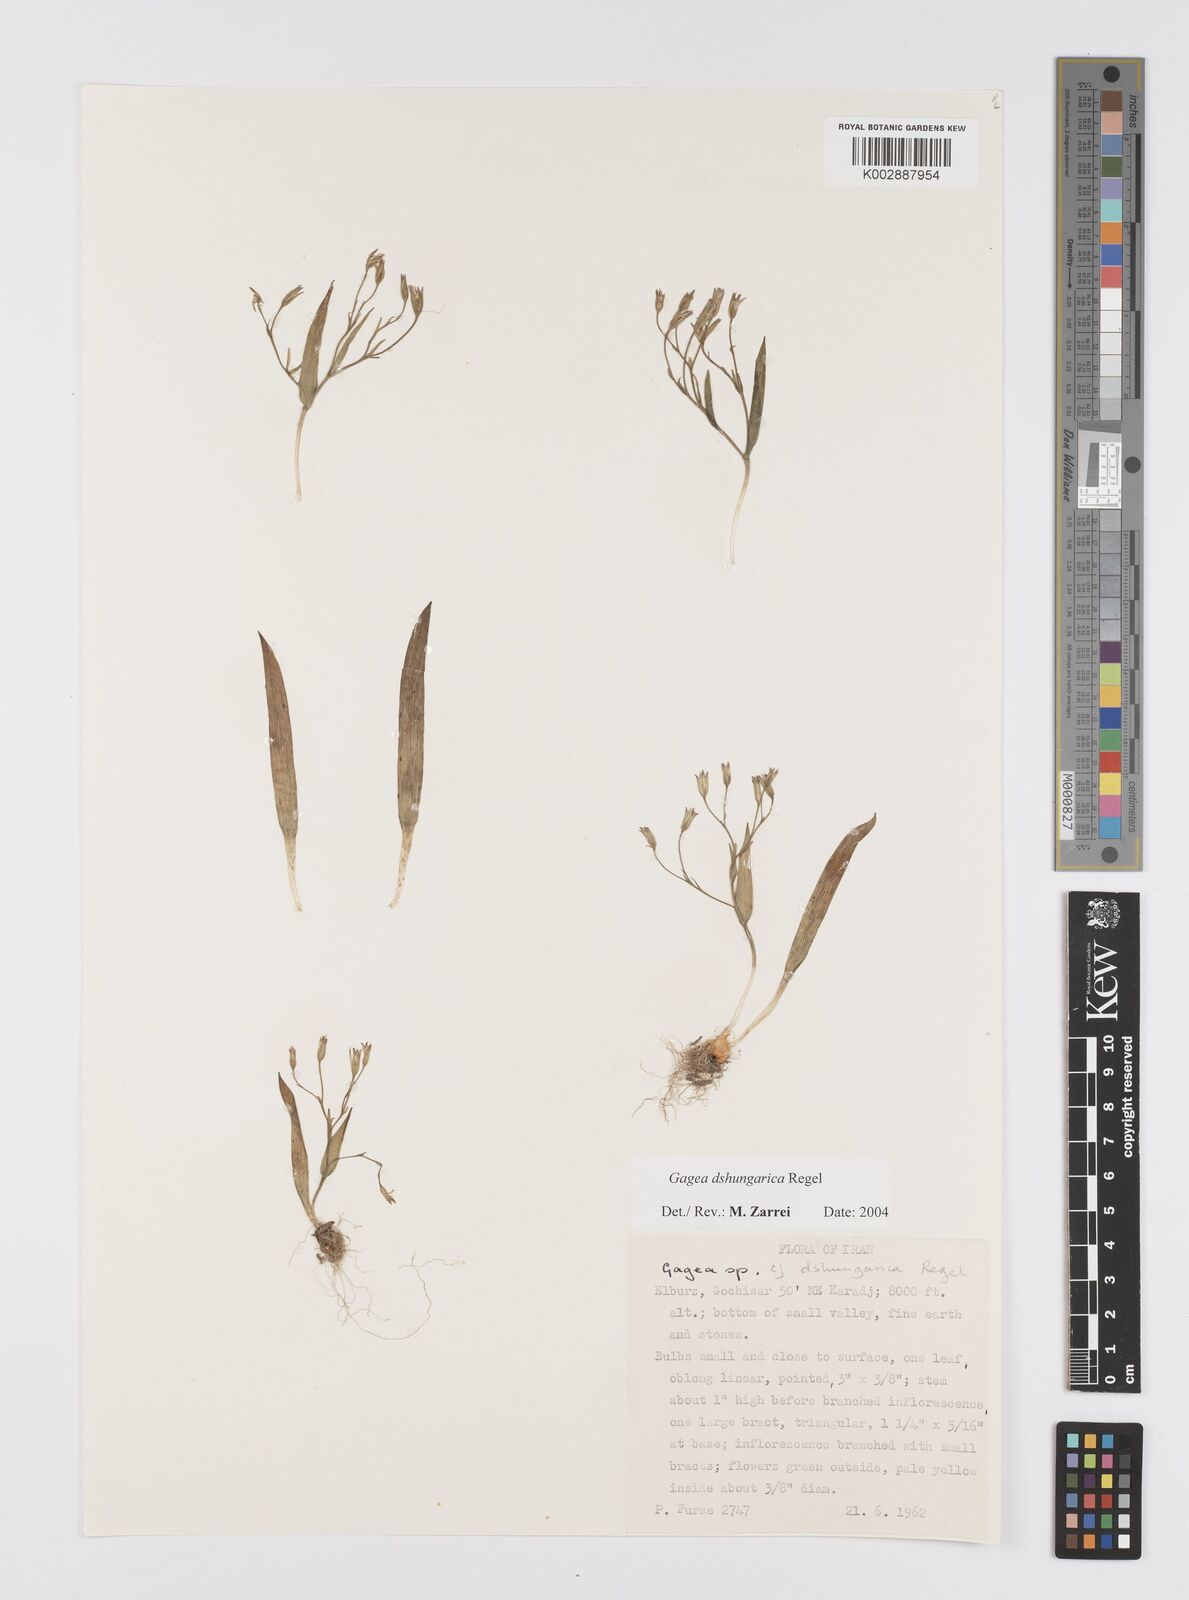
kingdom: Plantae
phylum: Tracheophyta
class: Liliopsida
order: Liliales
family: Liliaceae
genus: Gagea
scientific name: Gagea dschungarica
